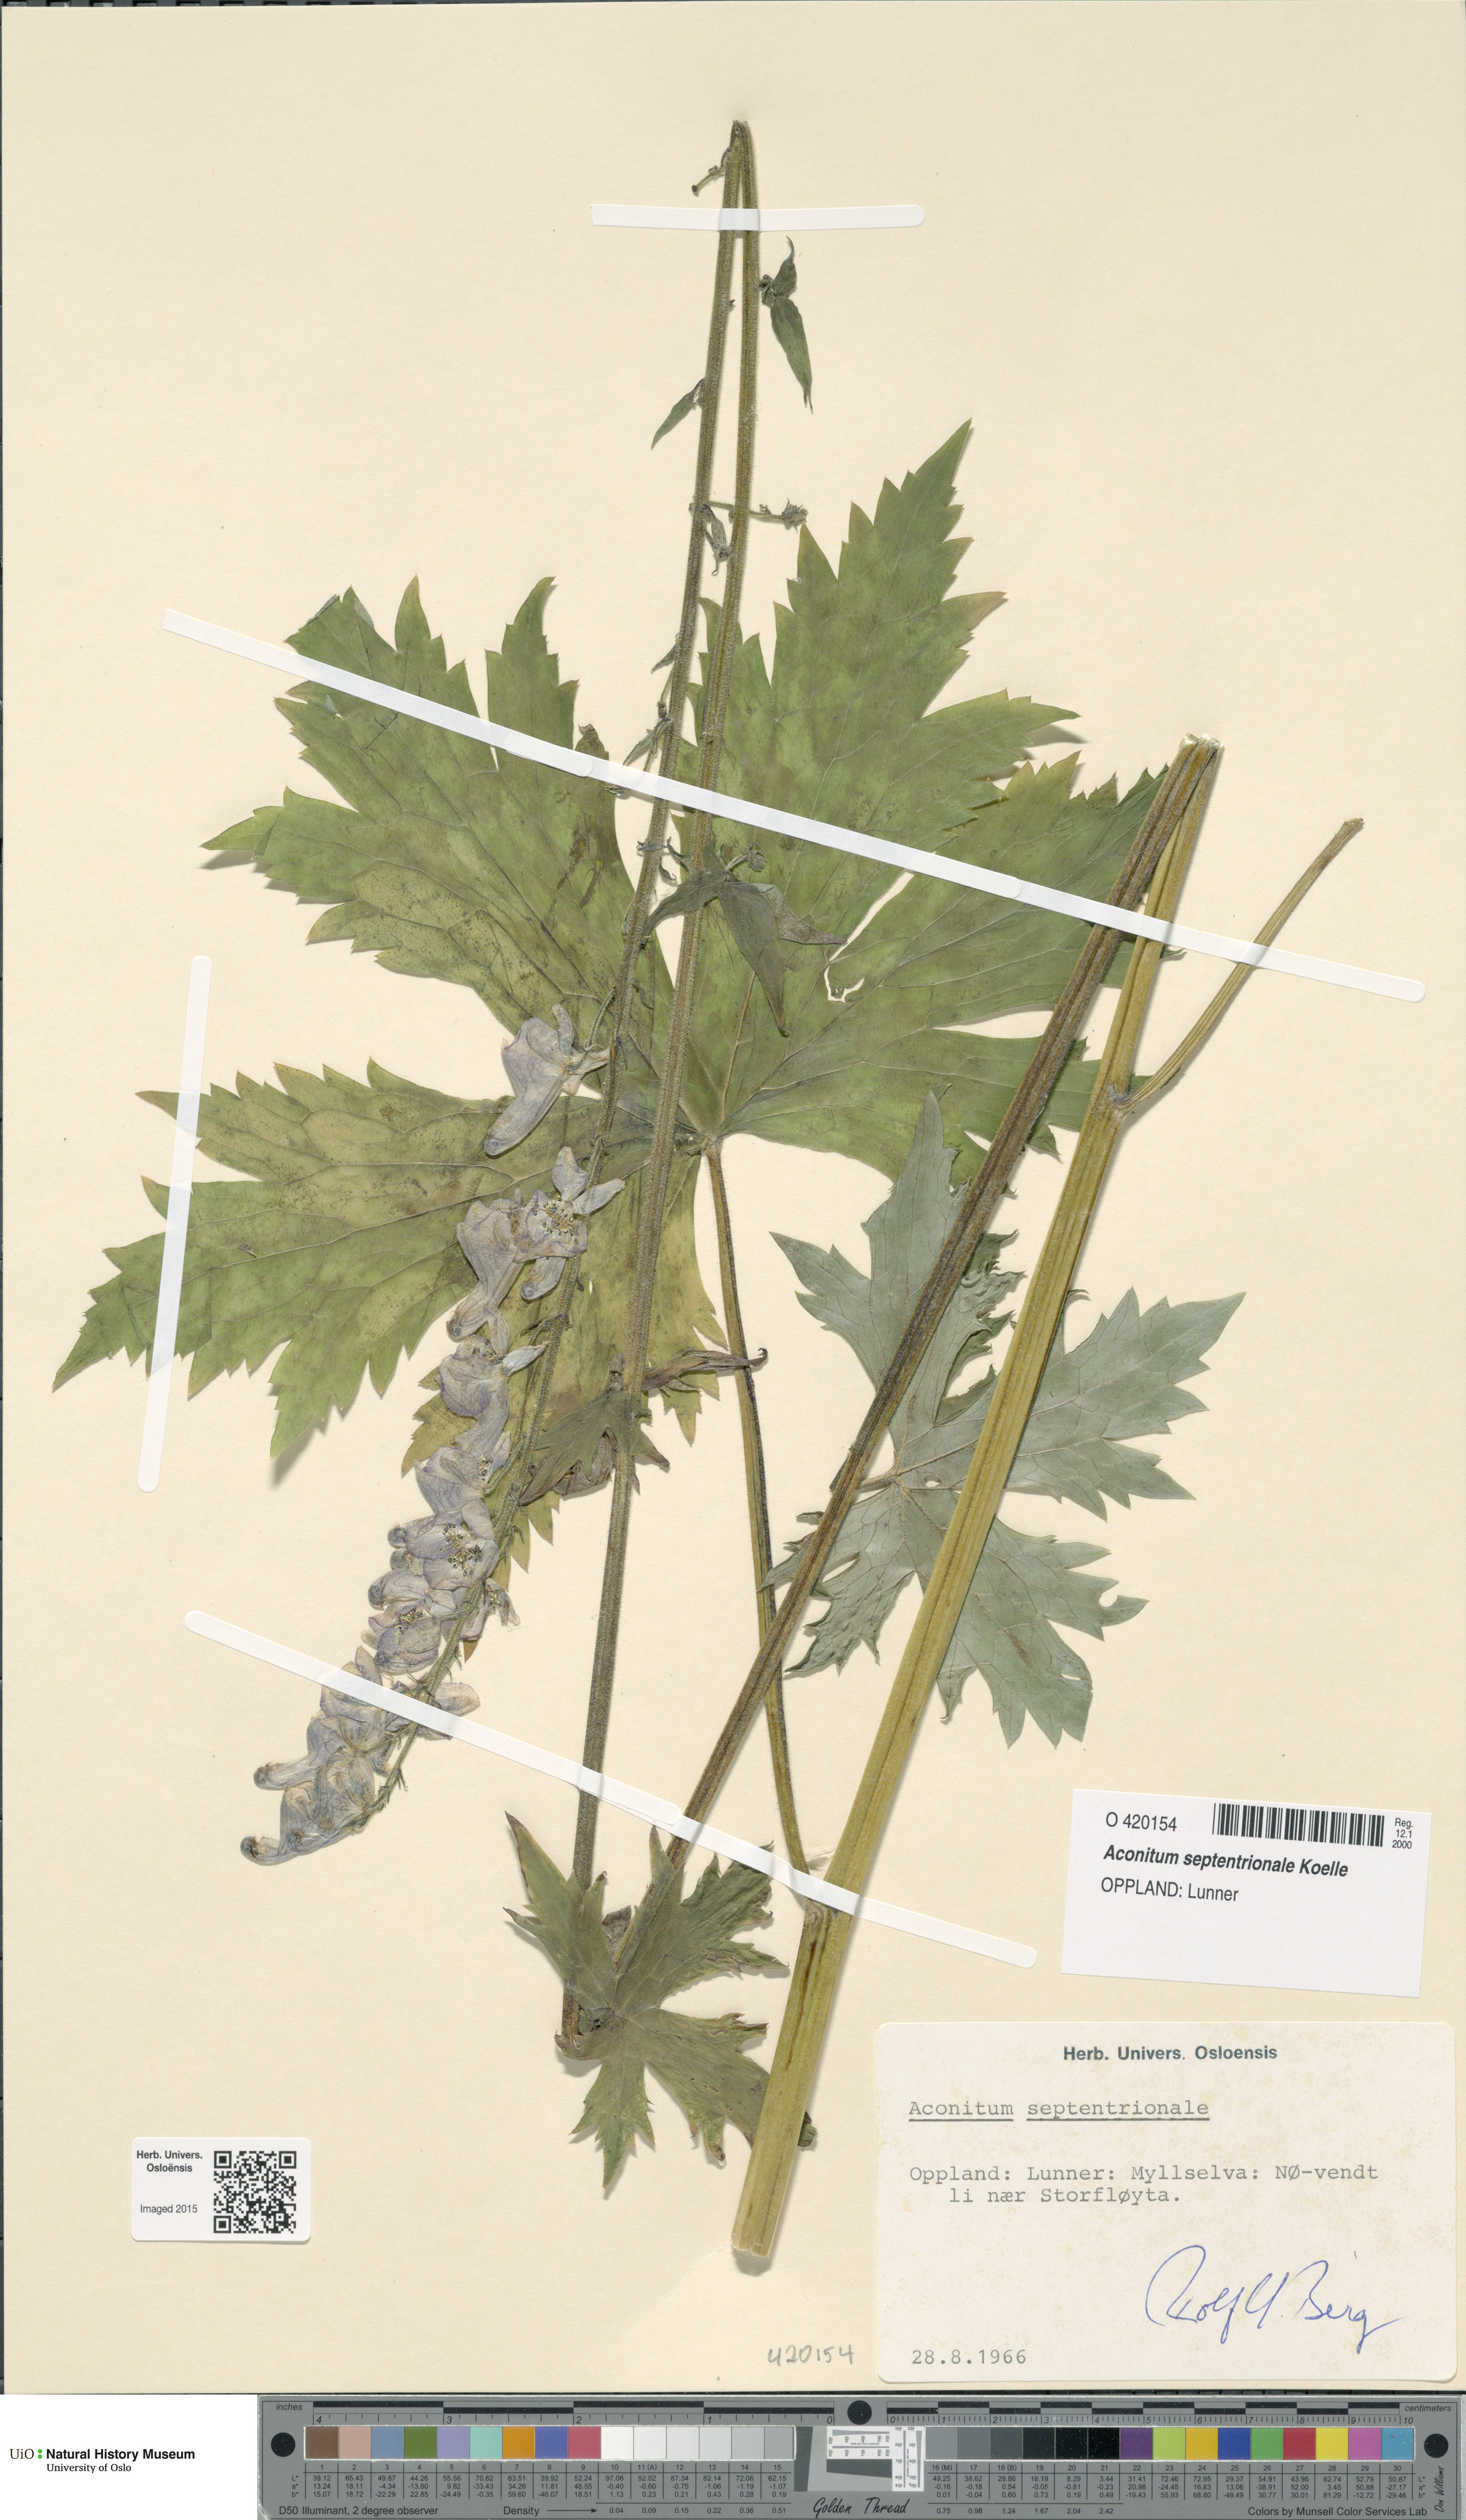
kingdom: Plantae
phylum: Tracheophyta
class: Magnoliopsida
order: Ranunculales
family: Ranunculaceae
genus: Aconitum
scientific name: Aconitum septentrionale
